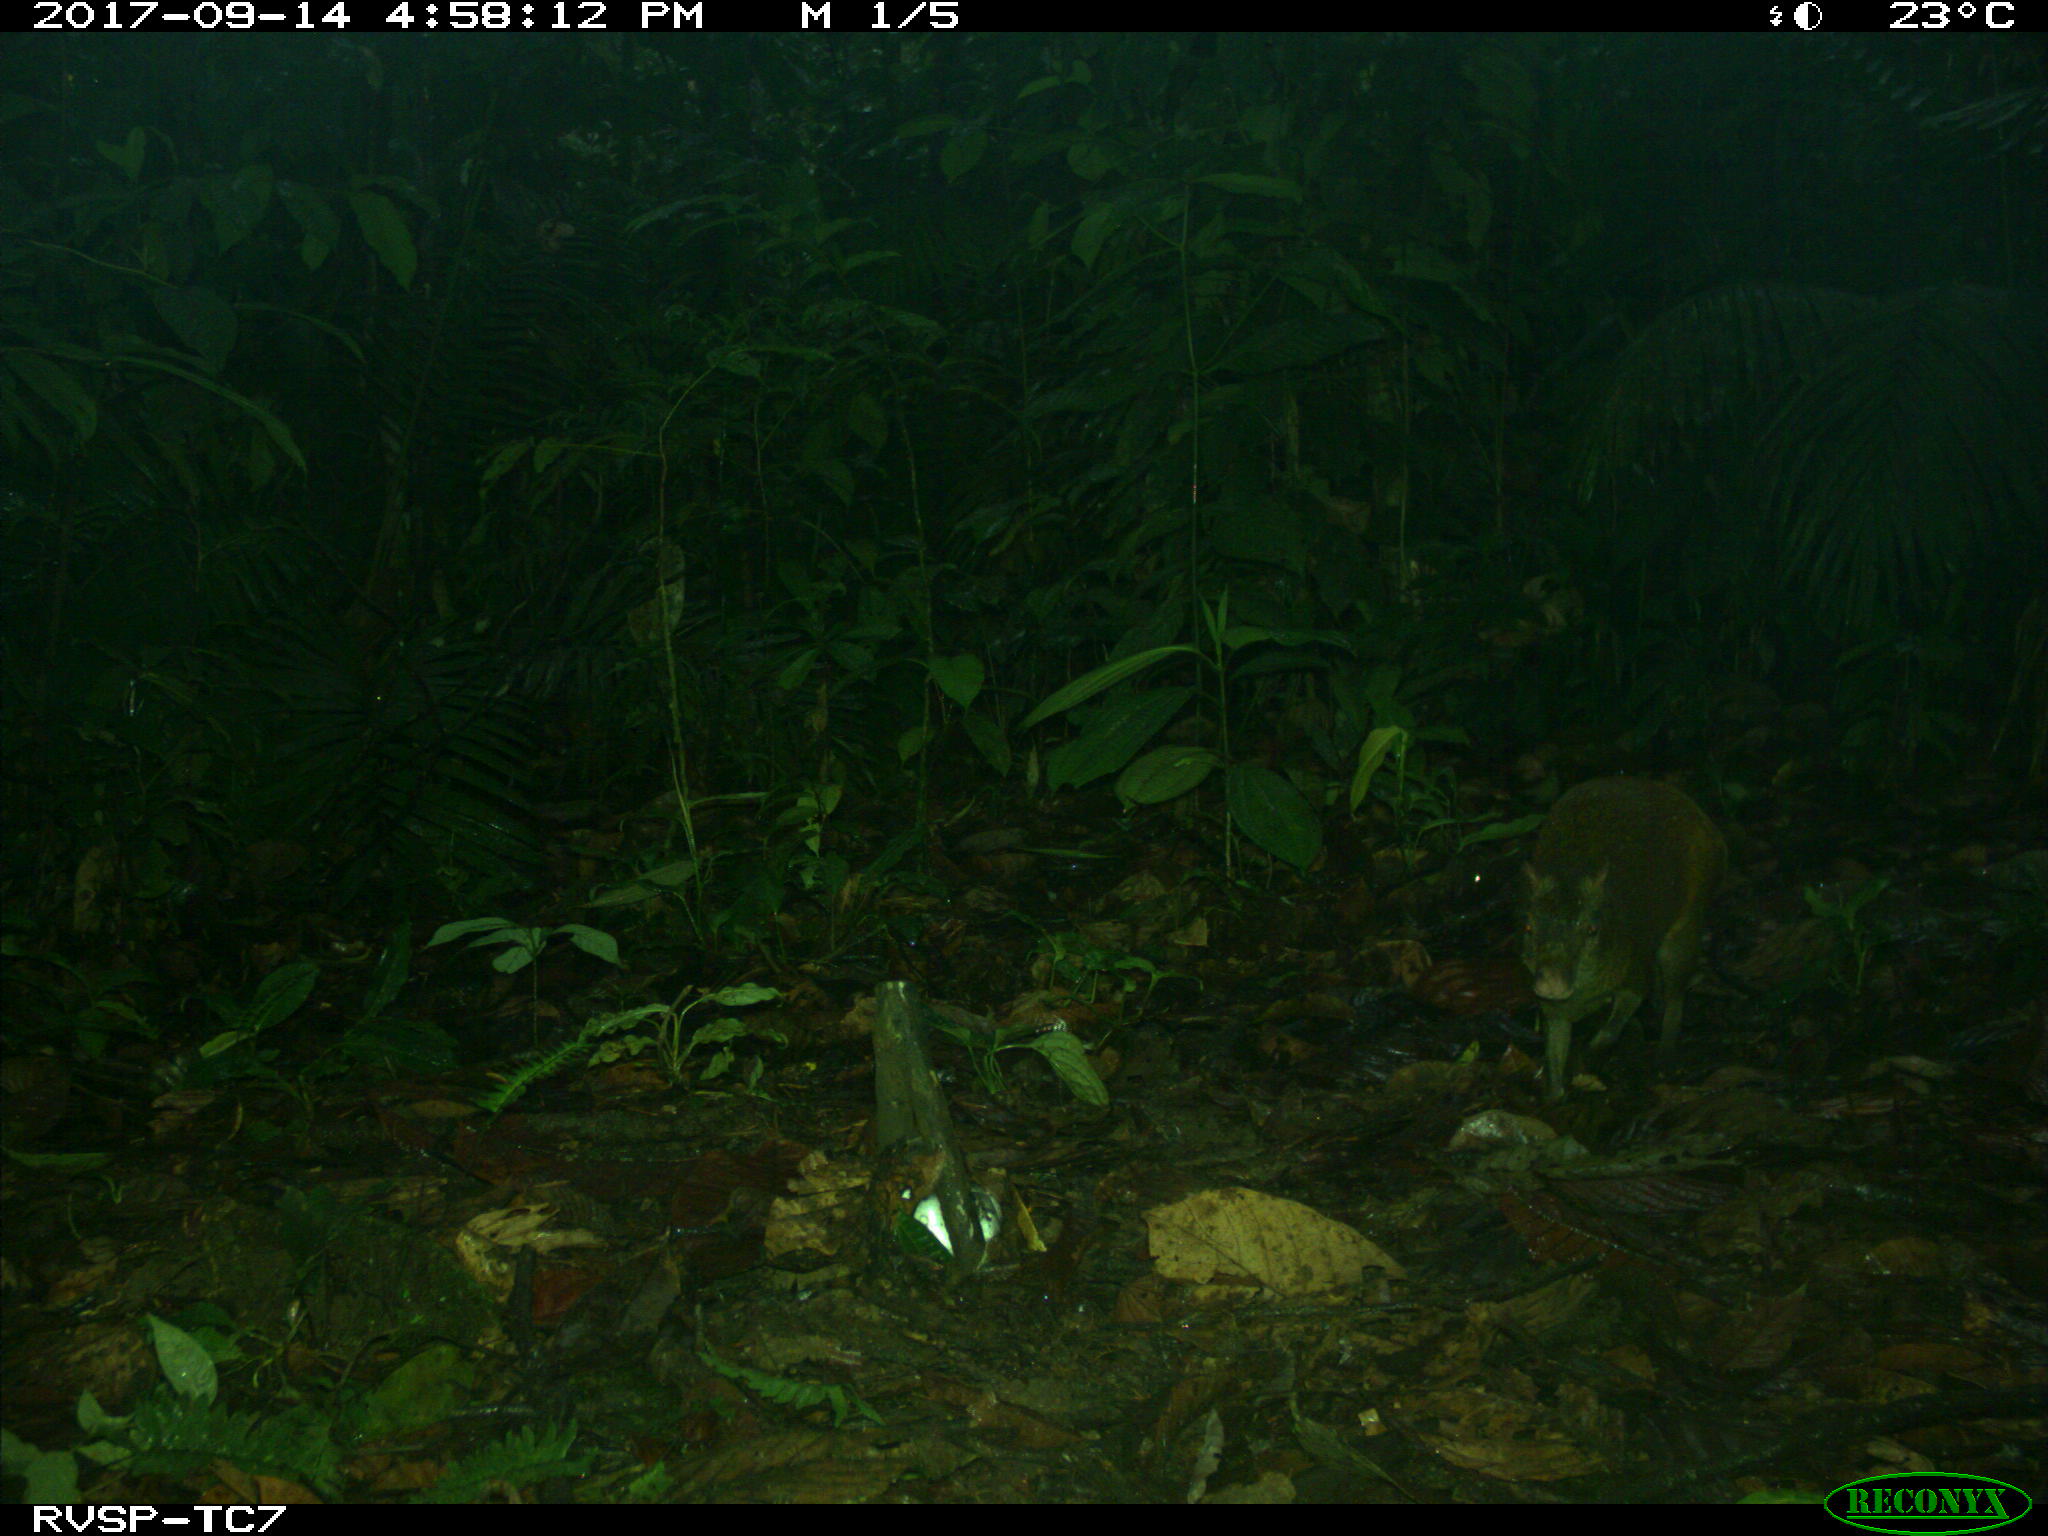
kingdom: Animalia
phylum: Chordata
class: Mammalia
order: Rodentia
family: Dasyproctidae
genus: Dasyprocta
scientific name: Dasyprocta punctata
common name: Central american agouti
